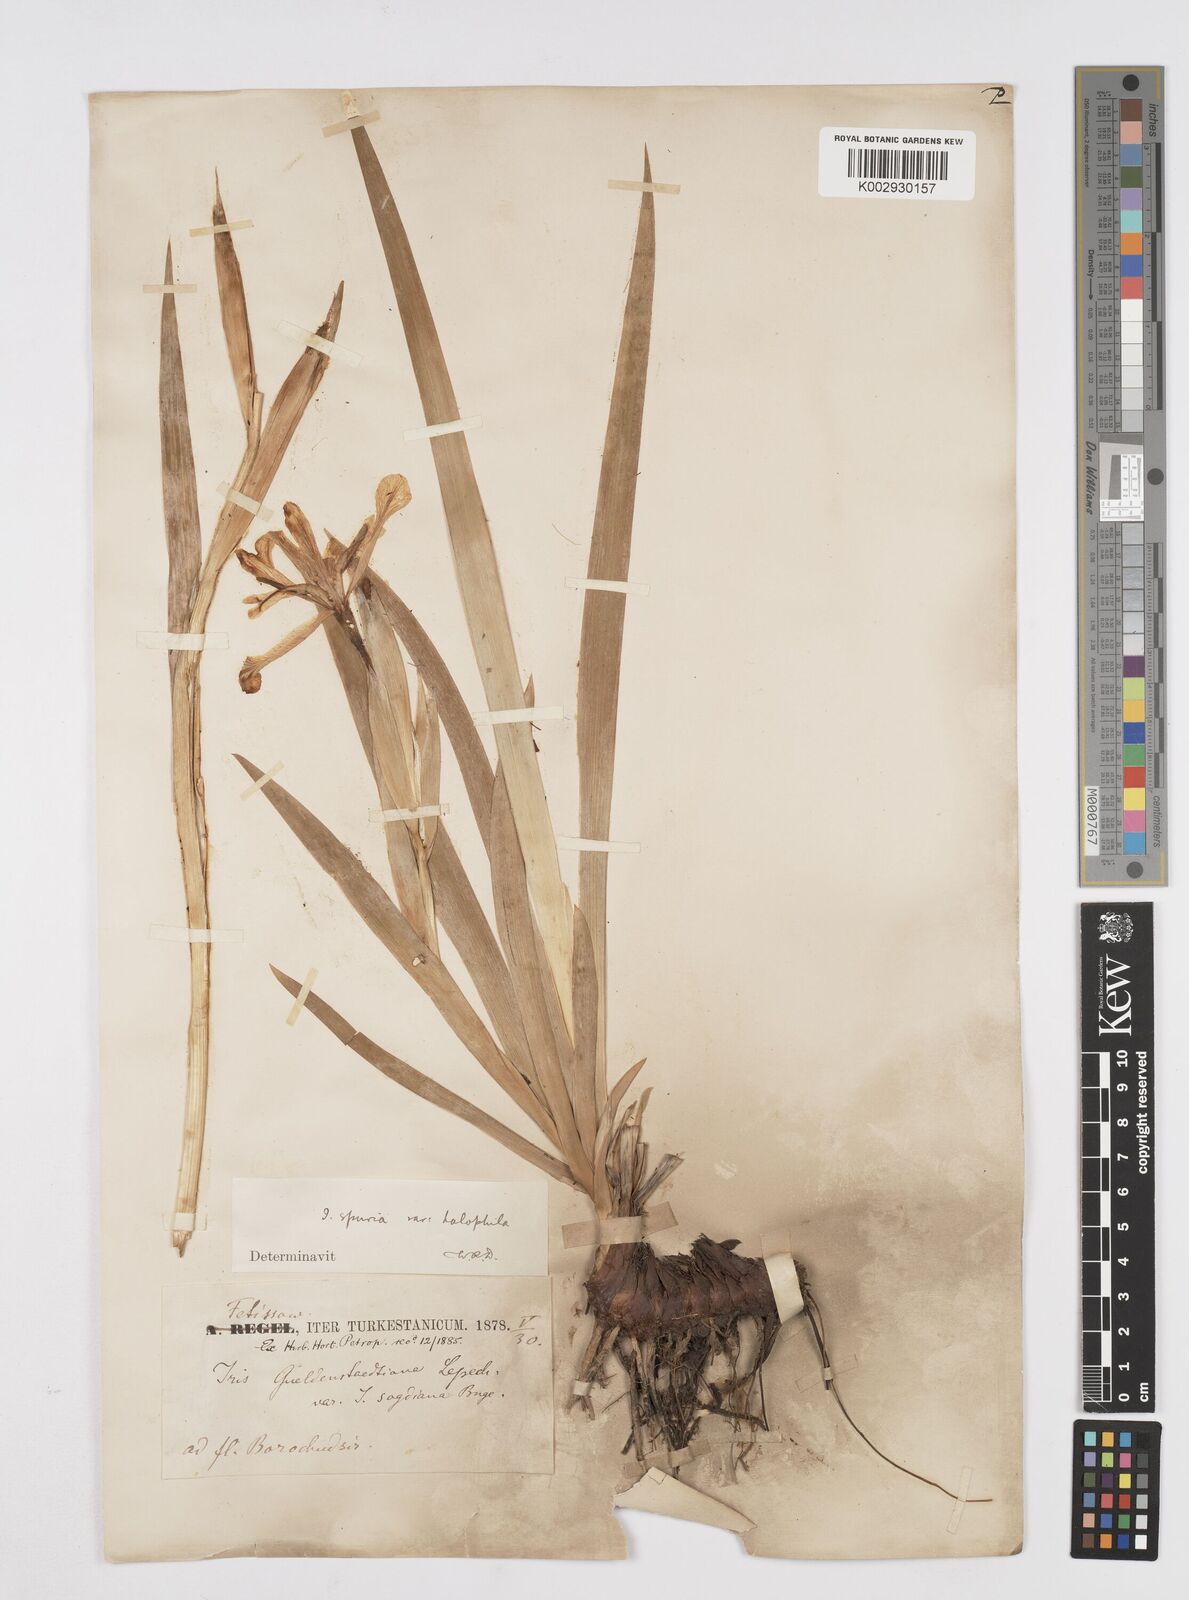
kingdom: Plantae
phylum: Tracheophyta
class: Liliopsida
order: Asparagales
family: Iridaceae
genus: Iris
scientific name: Iris halophila
